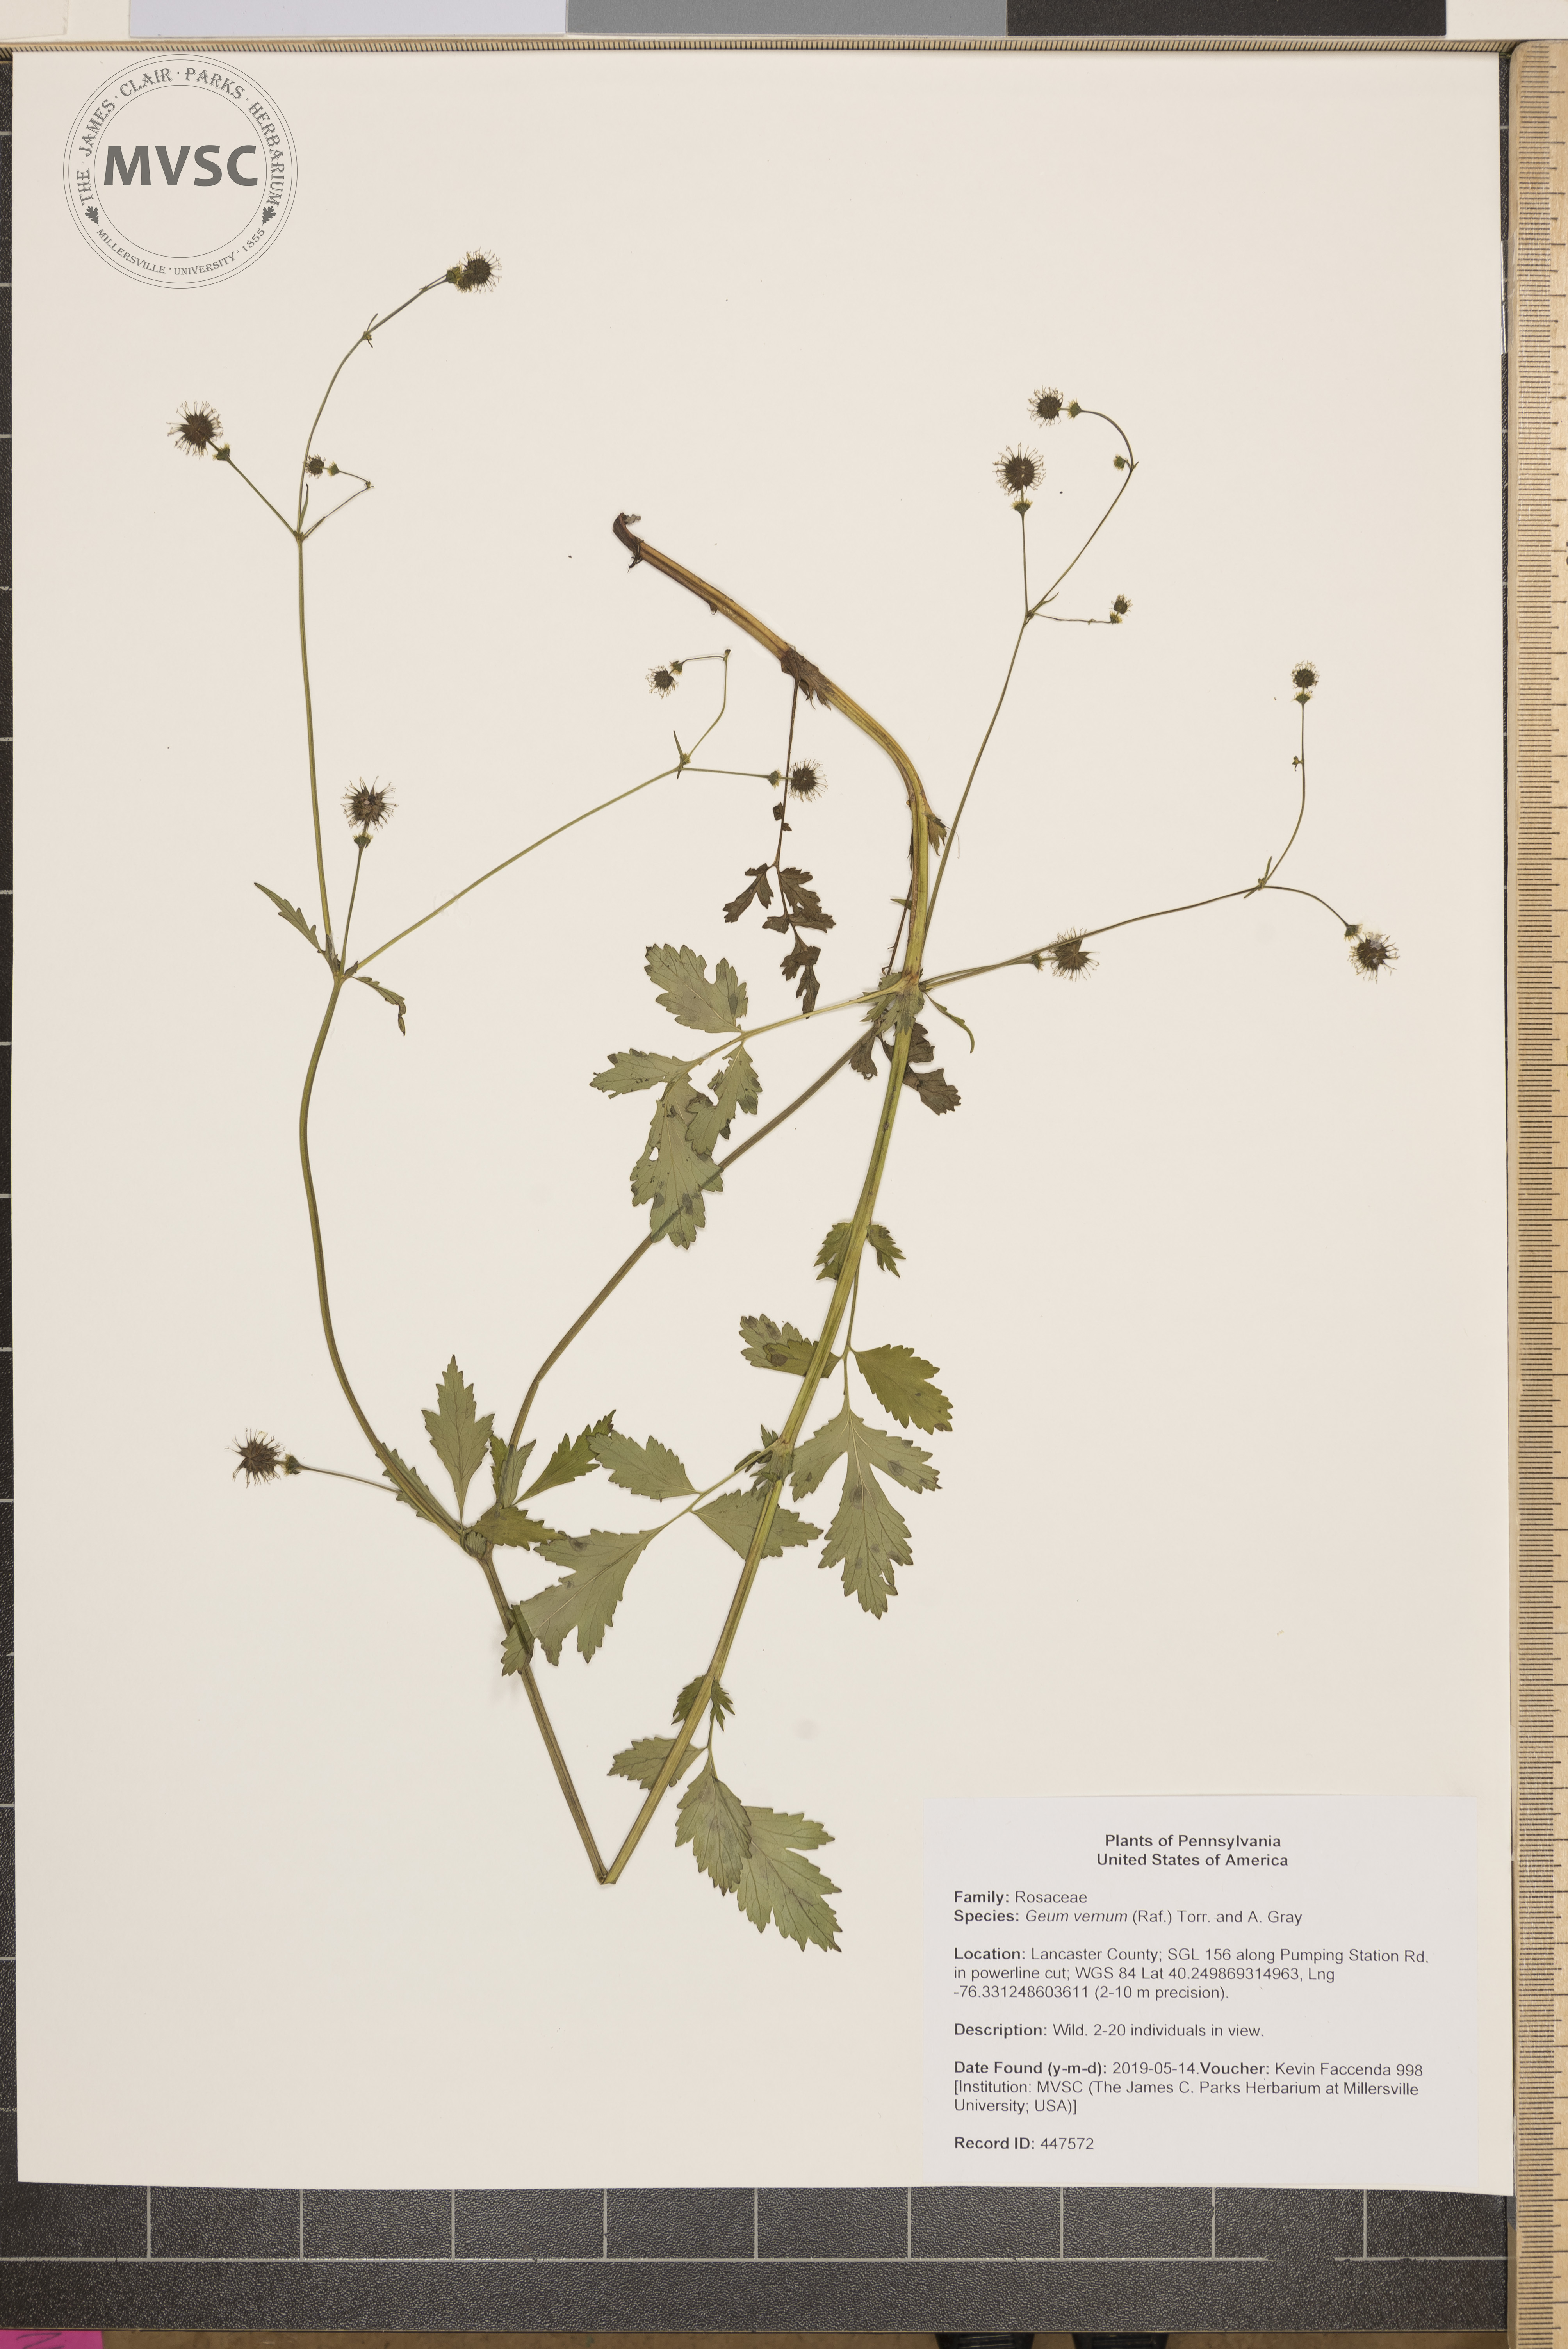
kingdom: Plantae
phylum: Tracheophyta
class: Magnoliopsida
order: Rosales
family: Rosaceae
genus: Geum
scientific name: Geum vernum
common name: Spring avens
